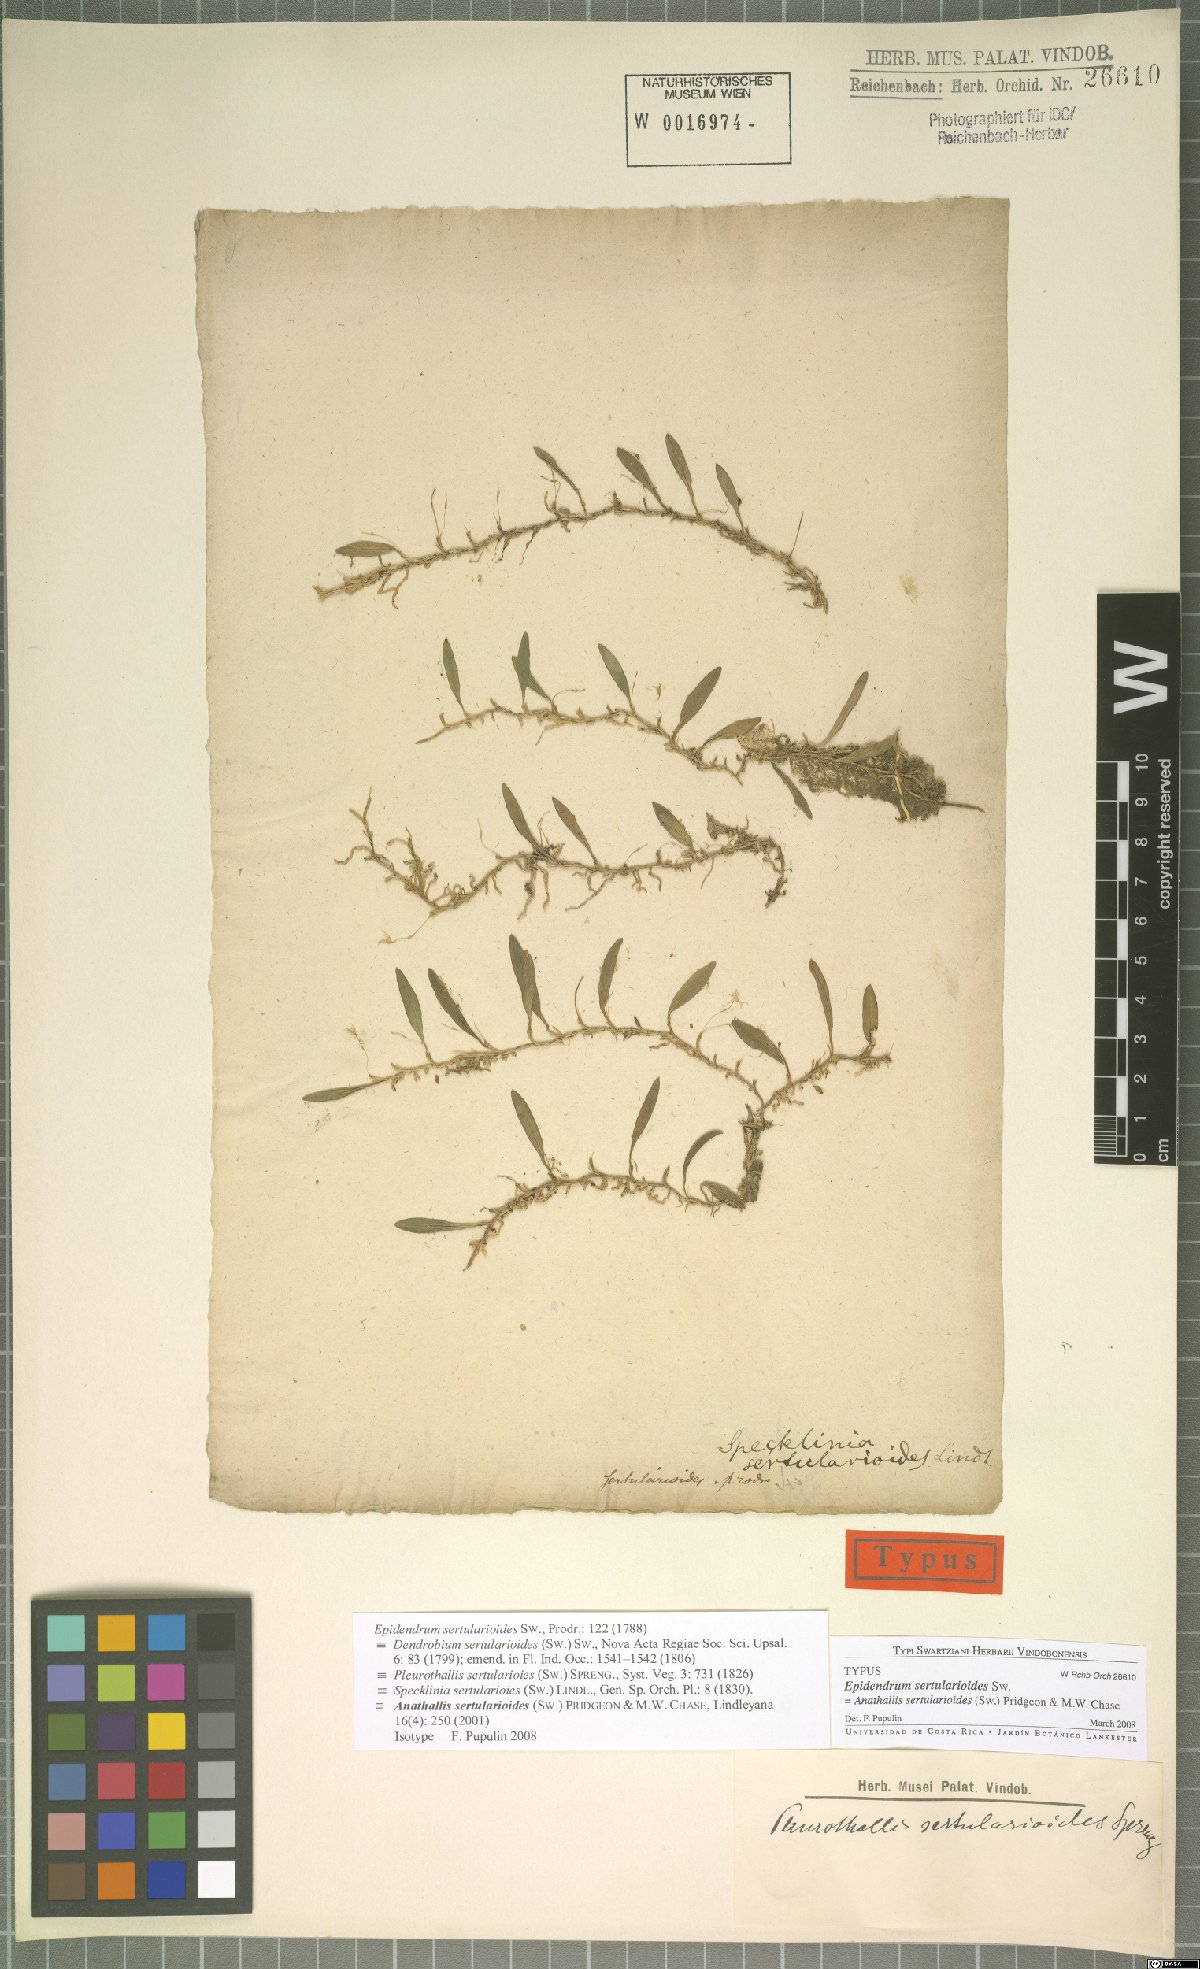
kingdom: Plantae
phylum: Tracheophyta
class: Liliopsida
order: Asparagales
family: Orchidaceae
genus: Anathallis
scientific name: Anathallis sertularioides
